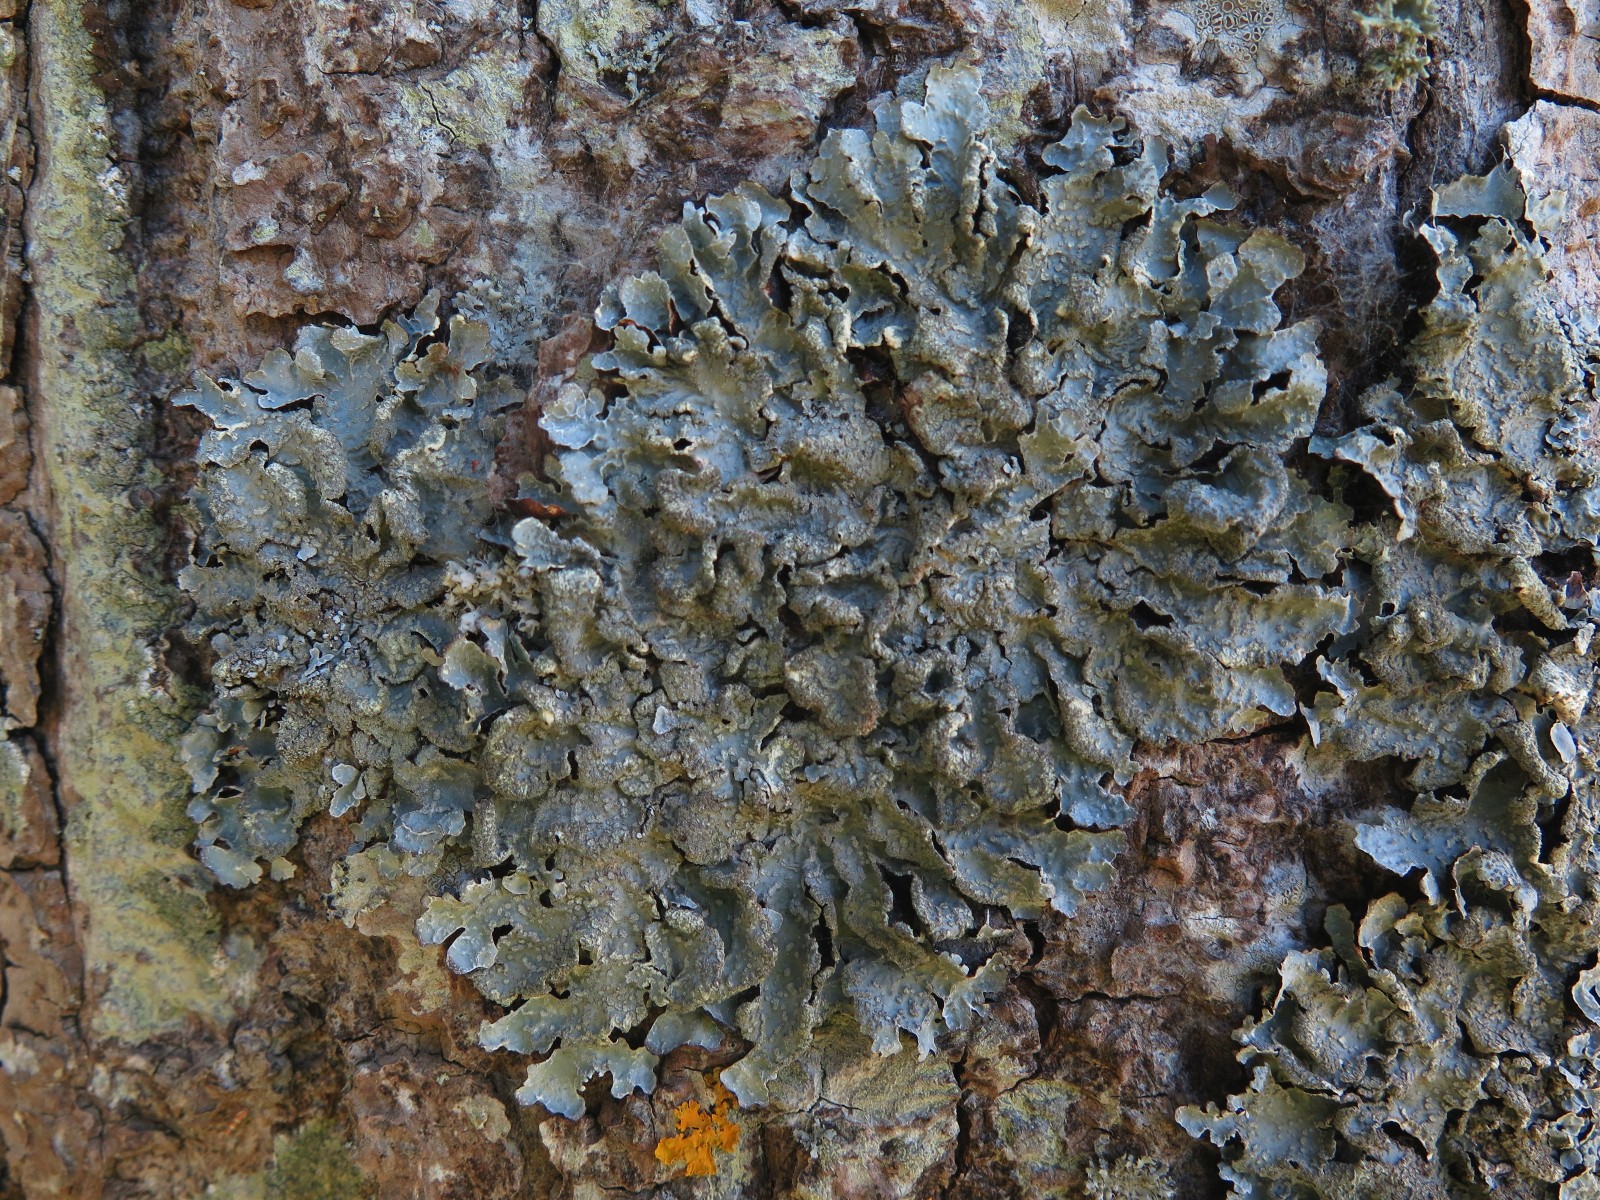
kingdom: Fungi
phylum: Ascomycota
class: Lecanoromycetes
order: Lecanorales
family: Parmeliaceae
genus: Parmelia
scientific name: Parmelia sulcata
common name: rynket skållav
